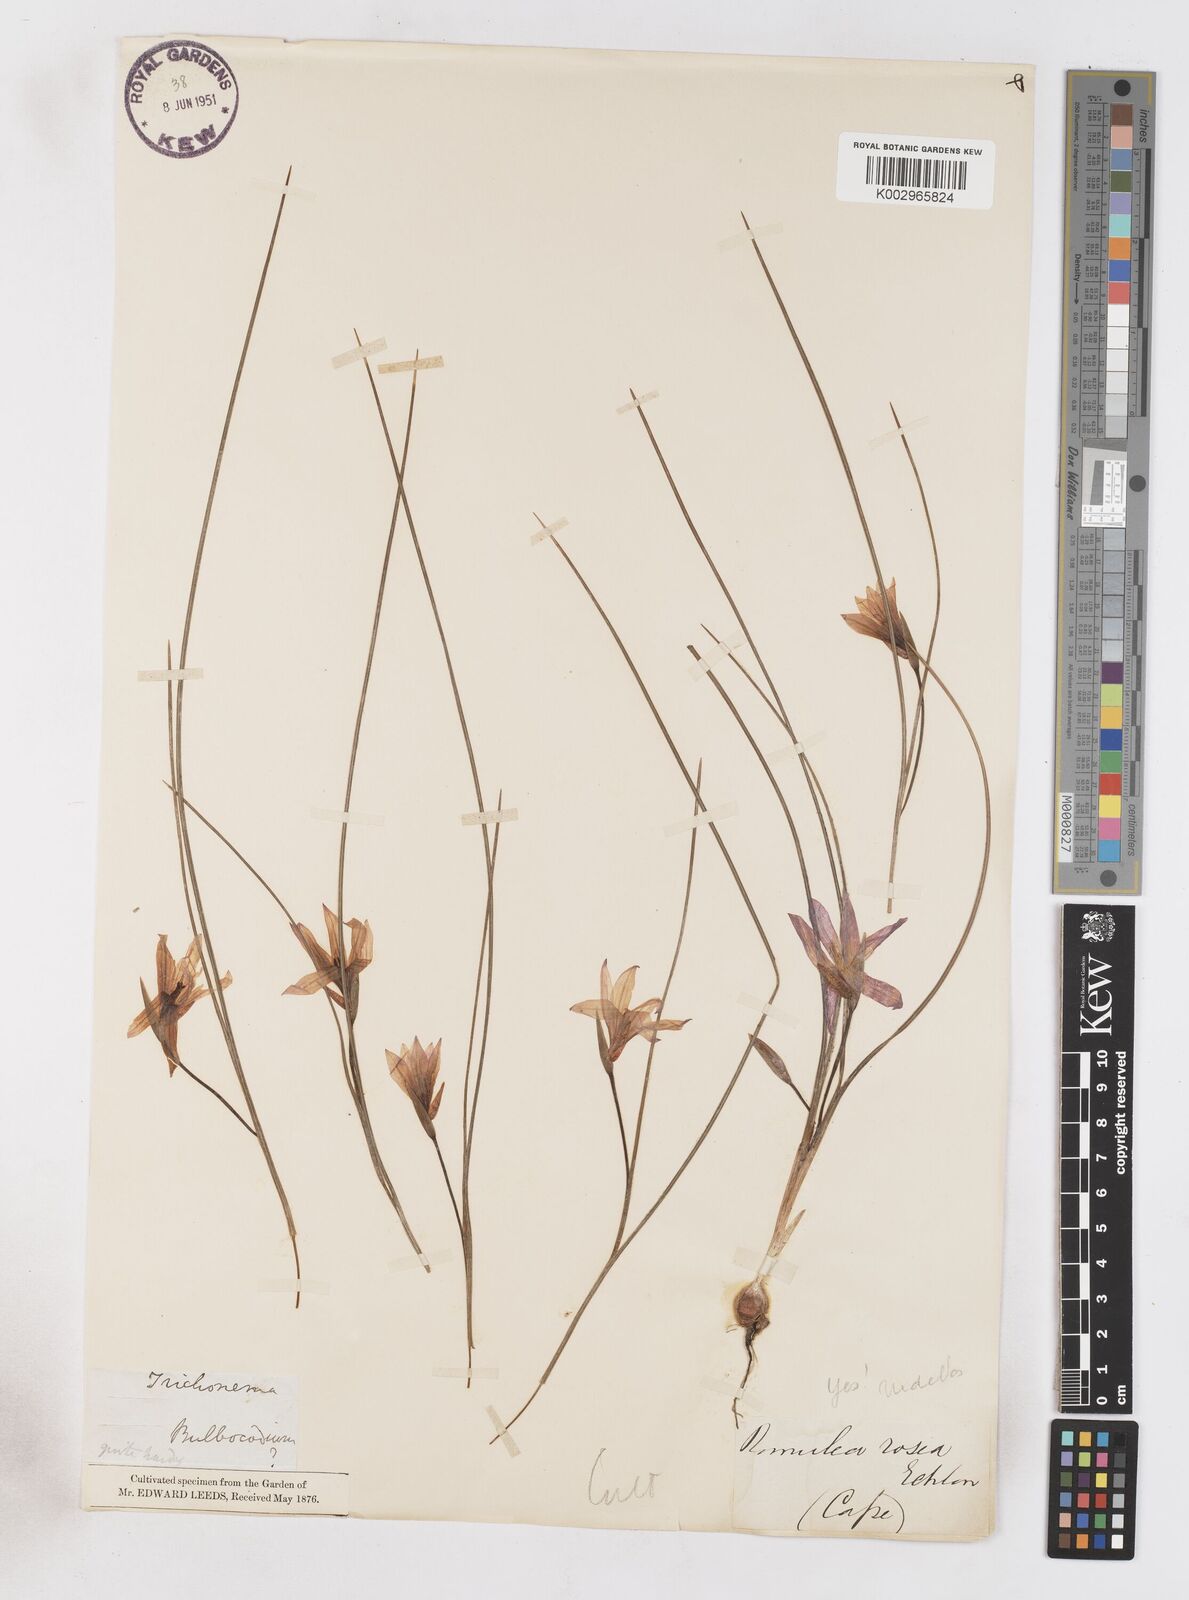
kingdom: Plantae
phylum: Tracheophyta
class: Liliopsida
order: Asparagales
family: Iridaceae
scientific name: Iridaceae
